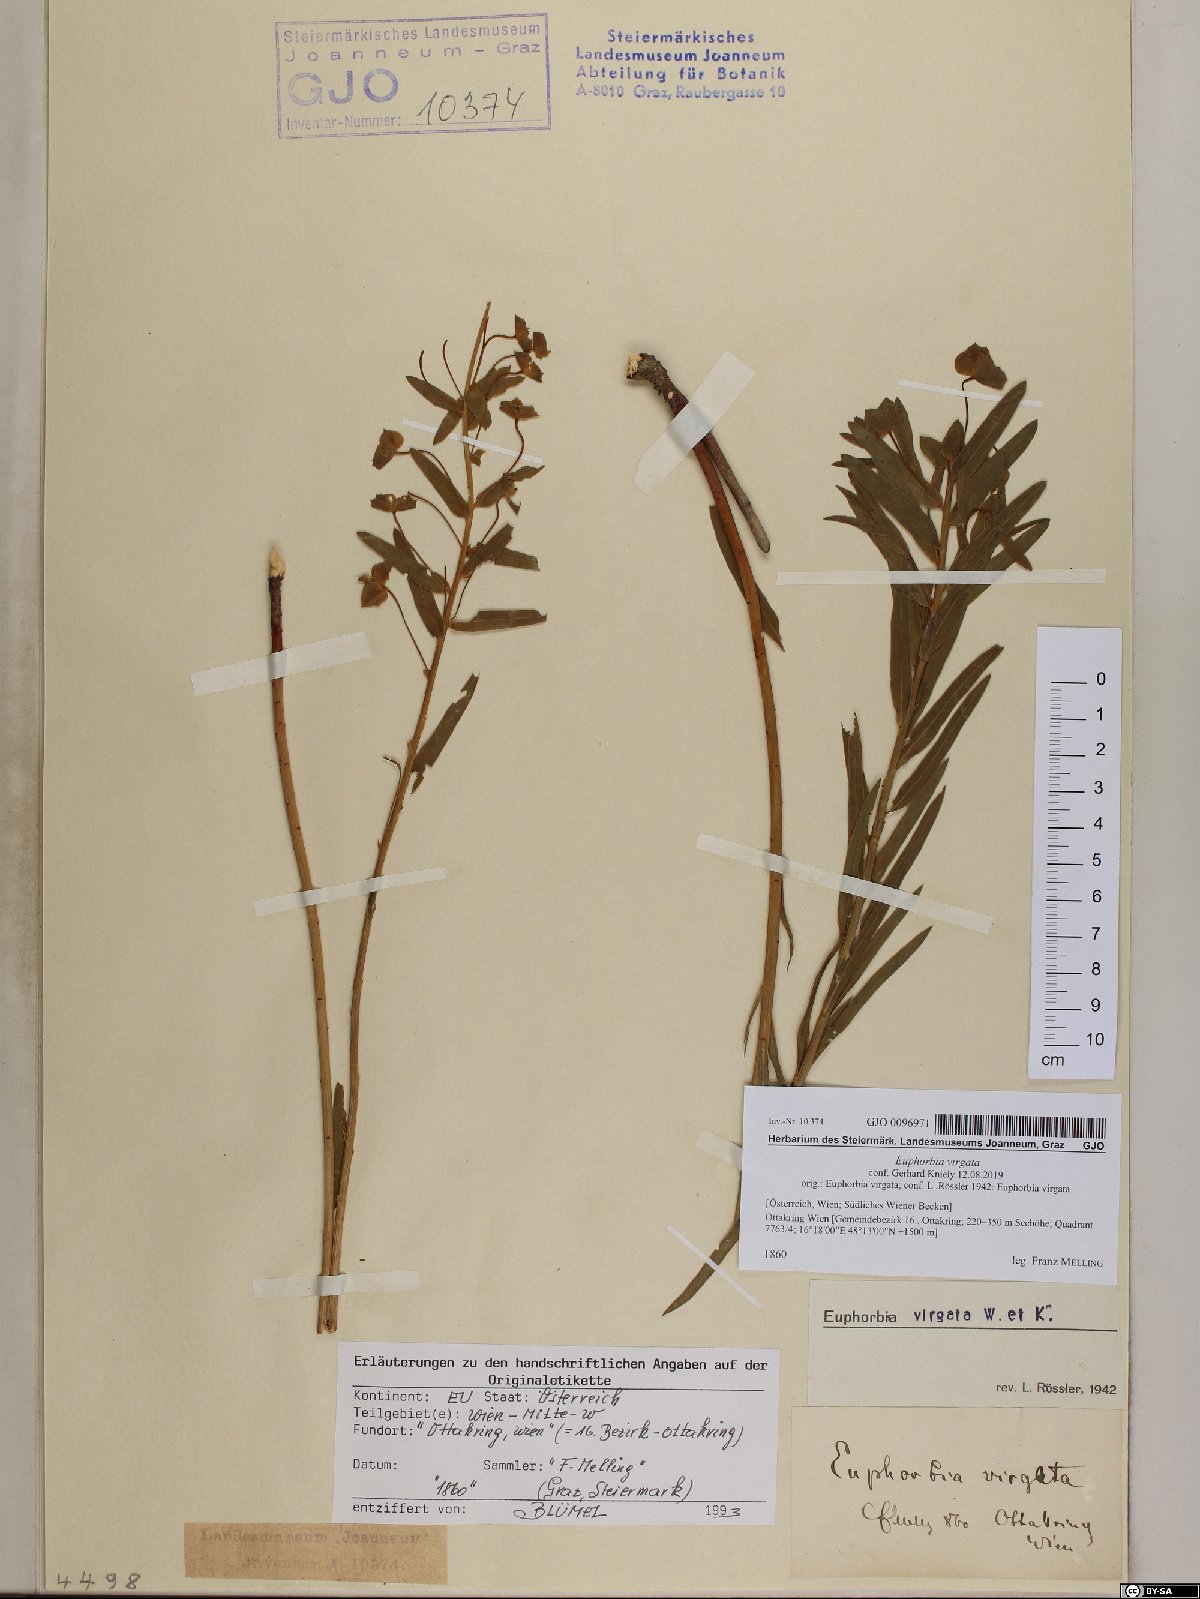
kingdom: Plantae
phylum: Tracheophyta
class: Magnoliopsida
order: Malpighiales
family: Euphorbiaceae
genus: Euphorbia
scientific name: Euphorbia virgata
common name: Leafy spurge
